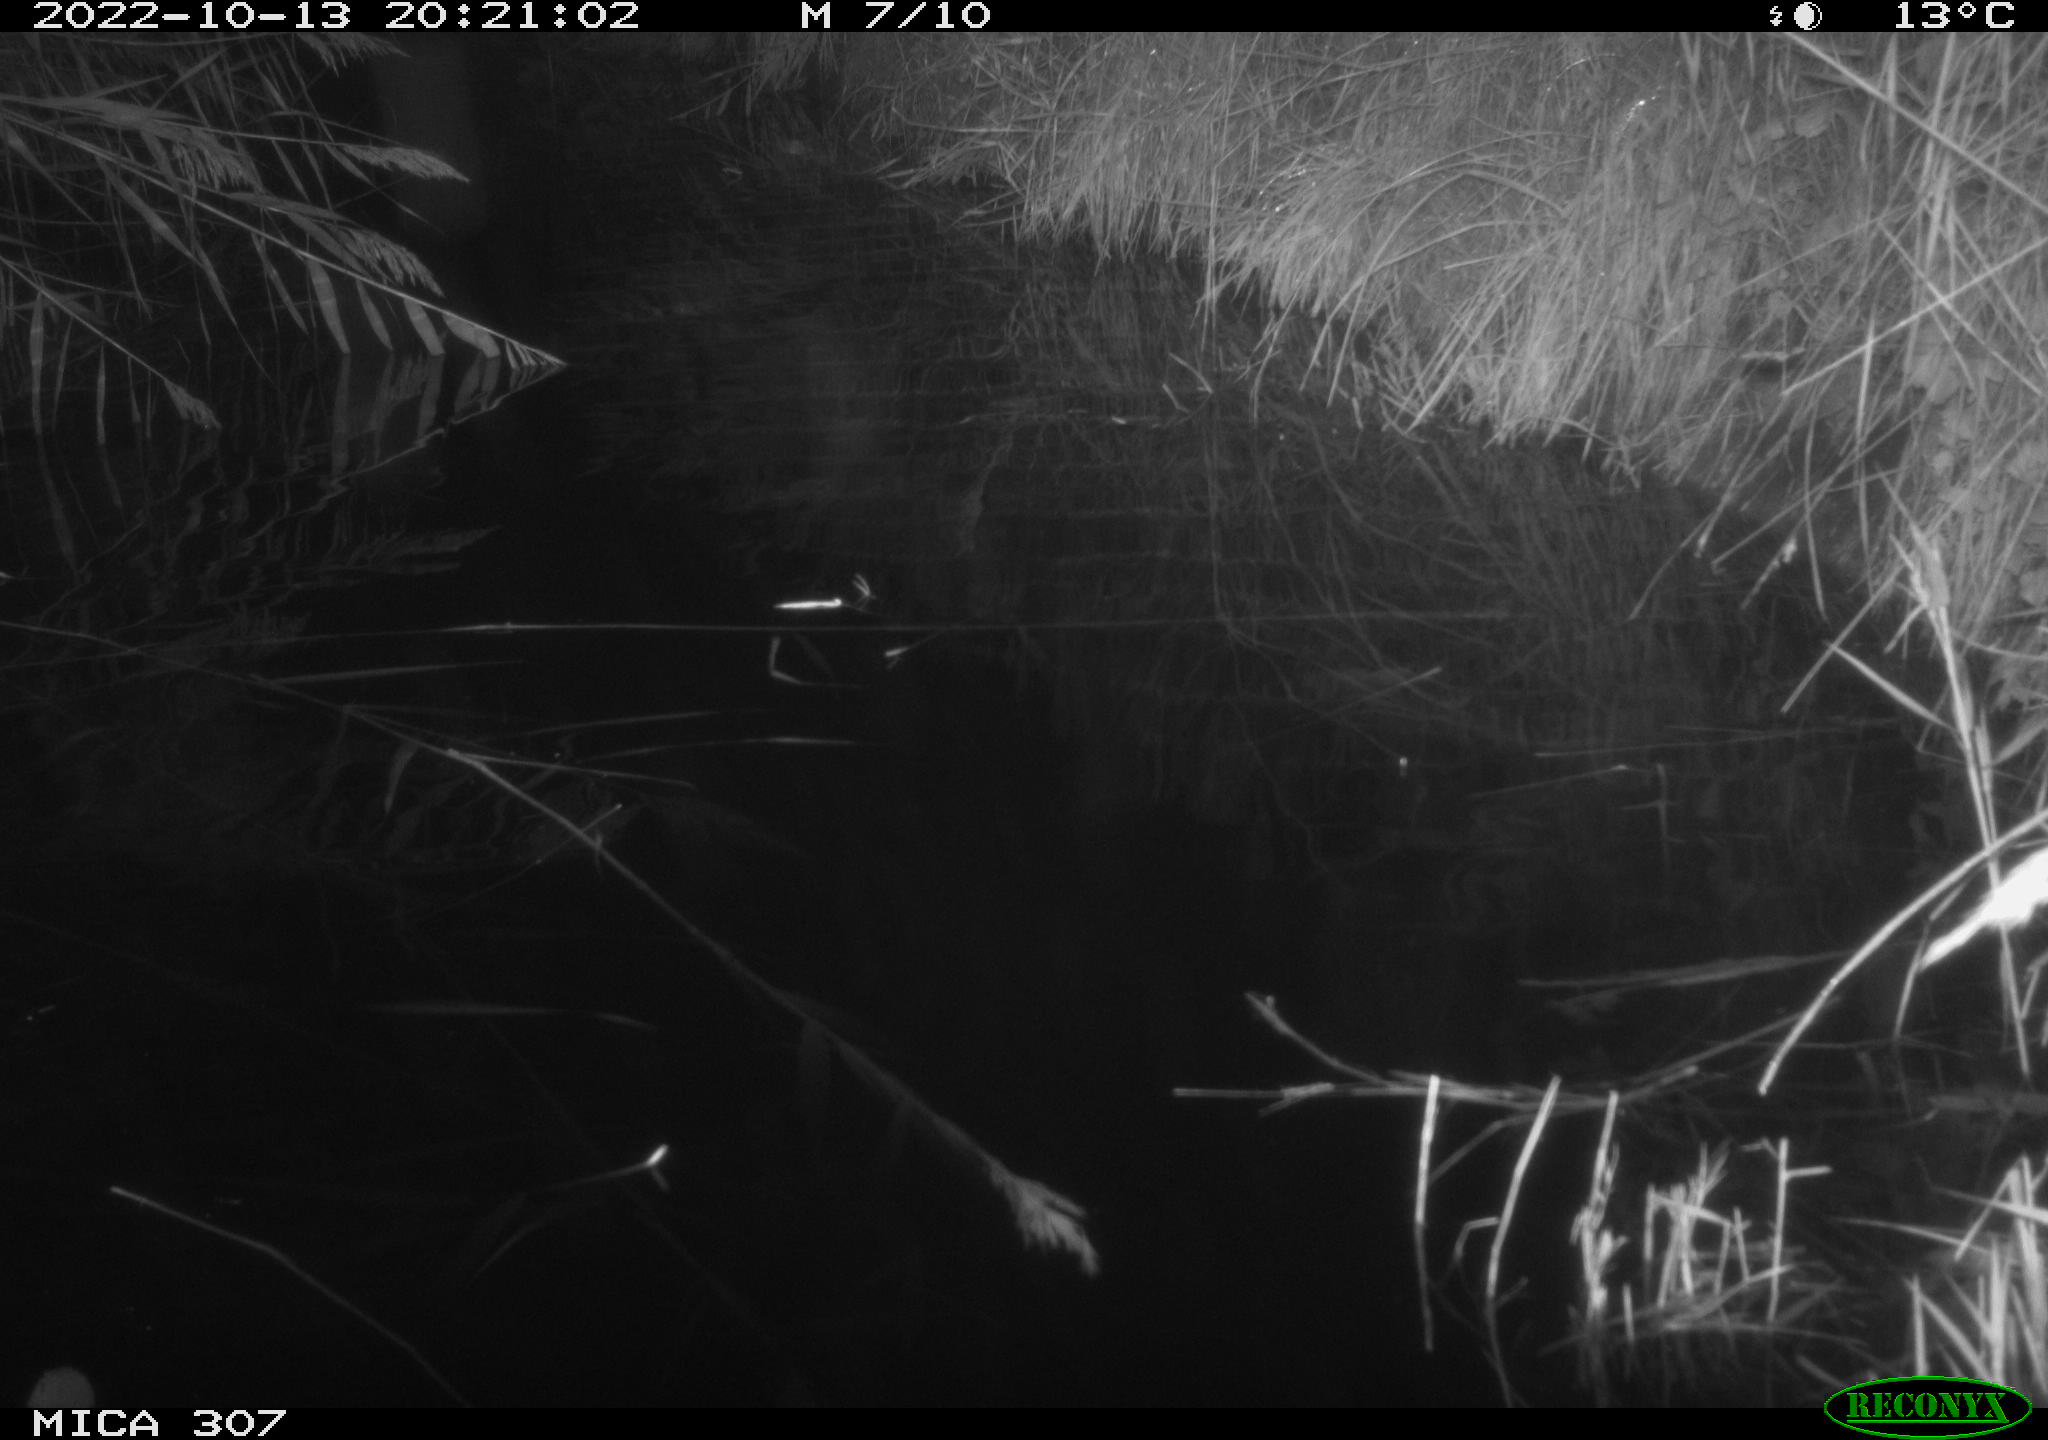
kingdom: Animalia
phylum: Chordata
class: Mammalia
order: Rodentia
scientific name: Rodentia
